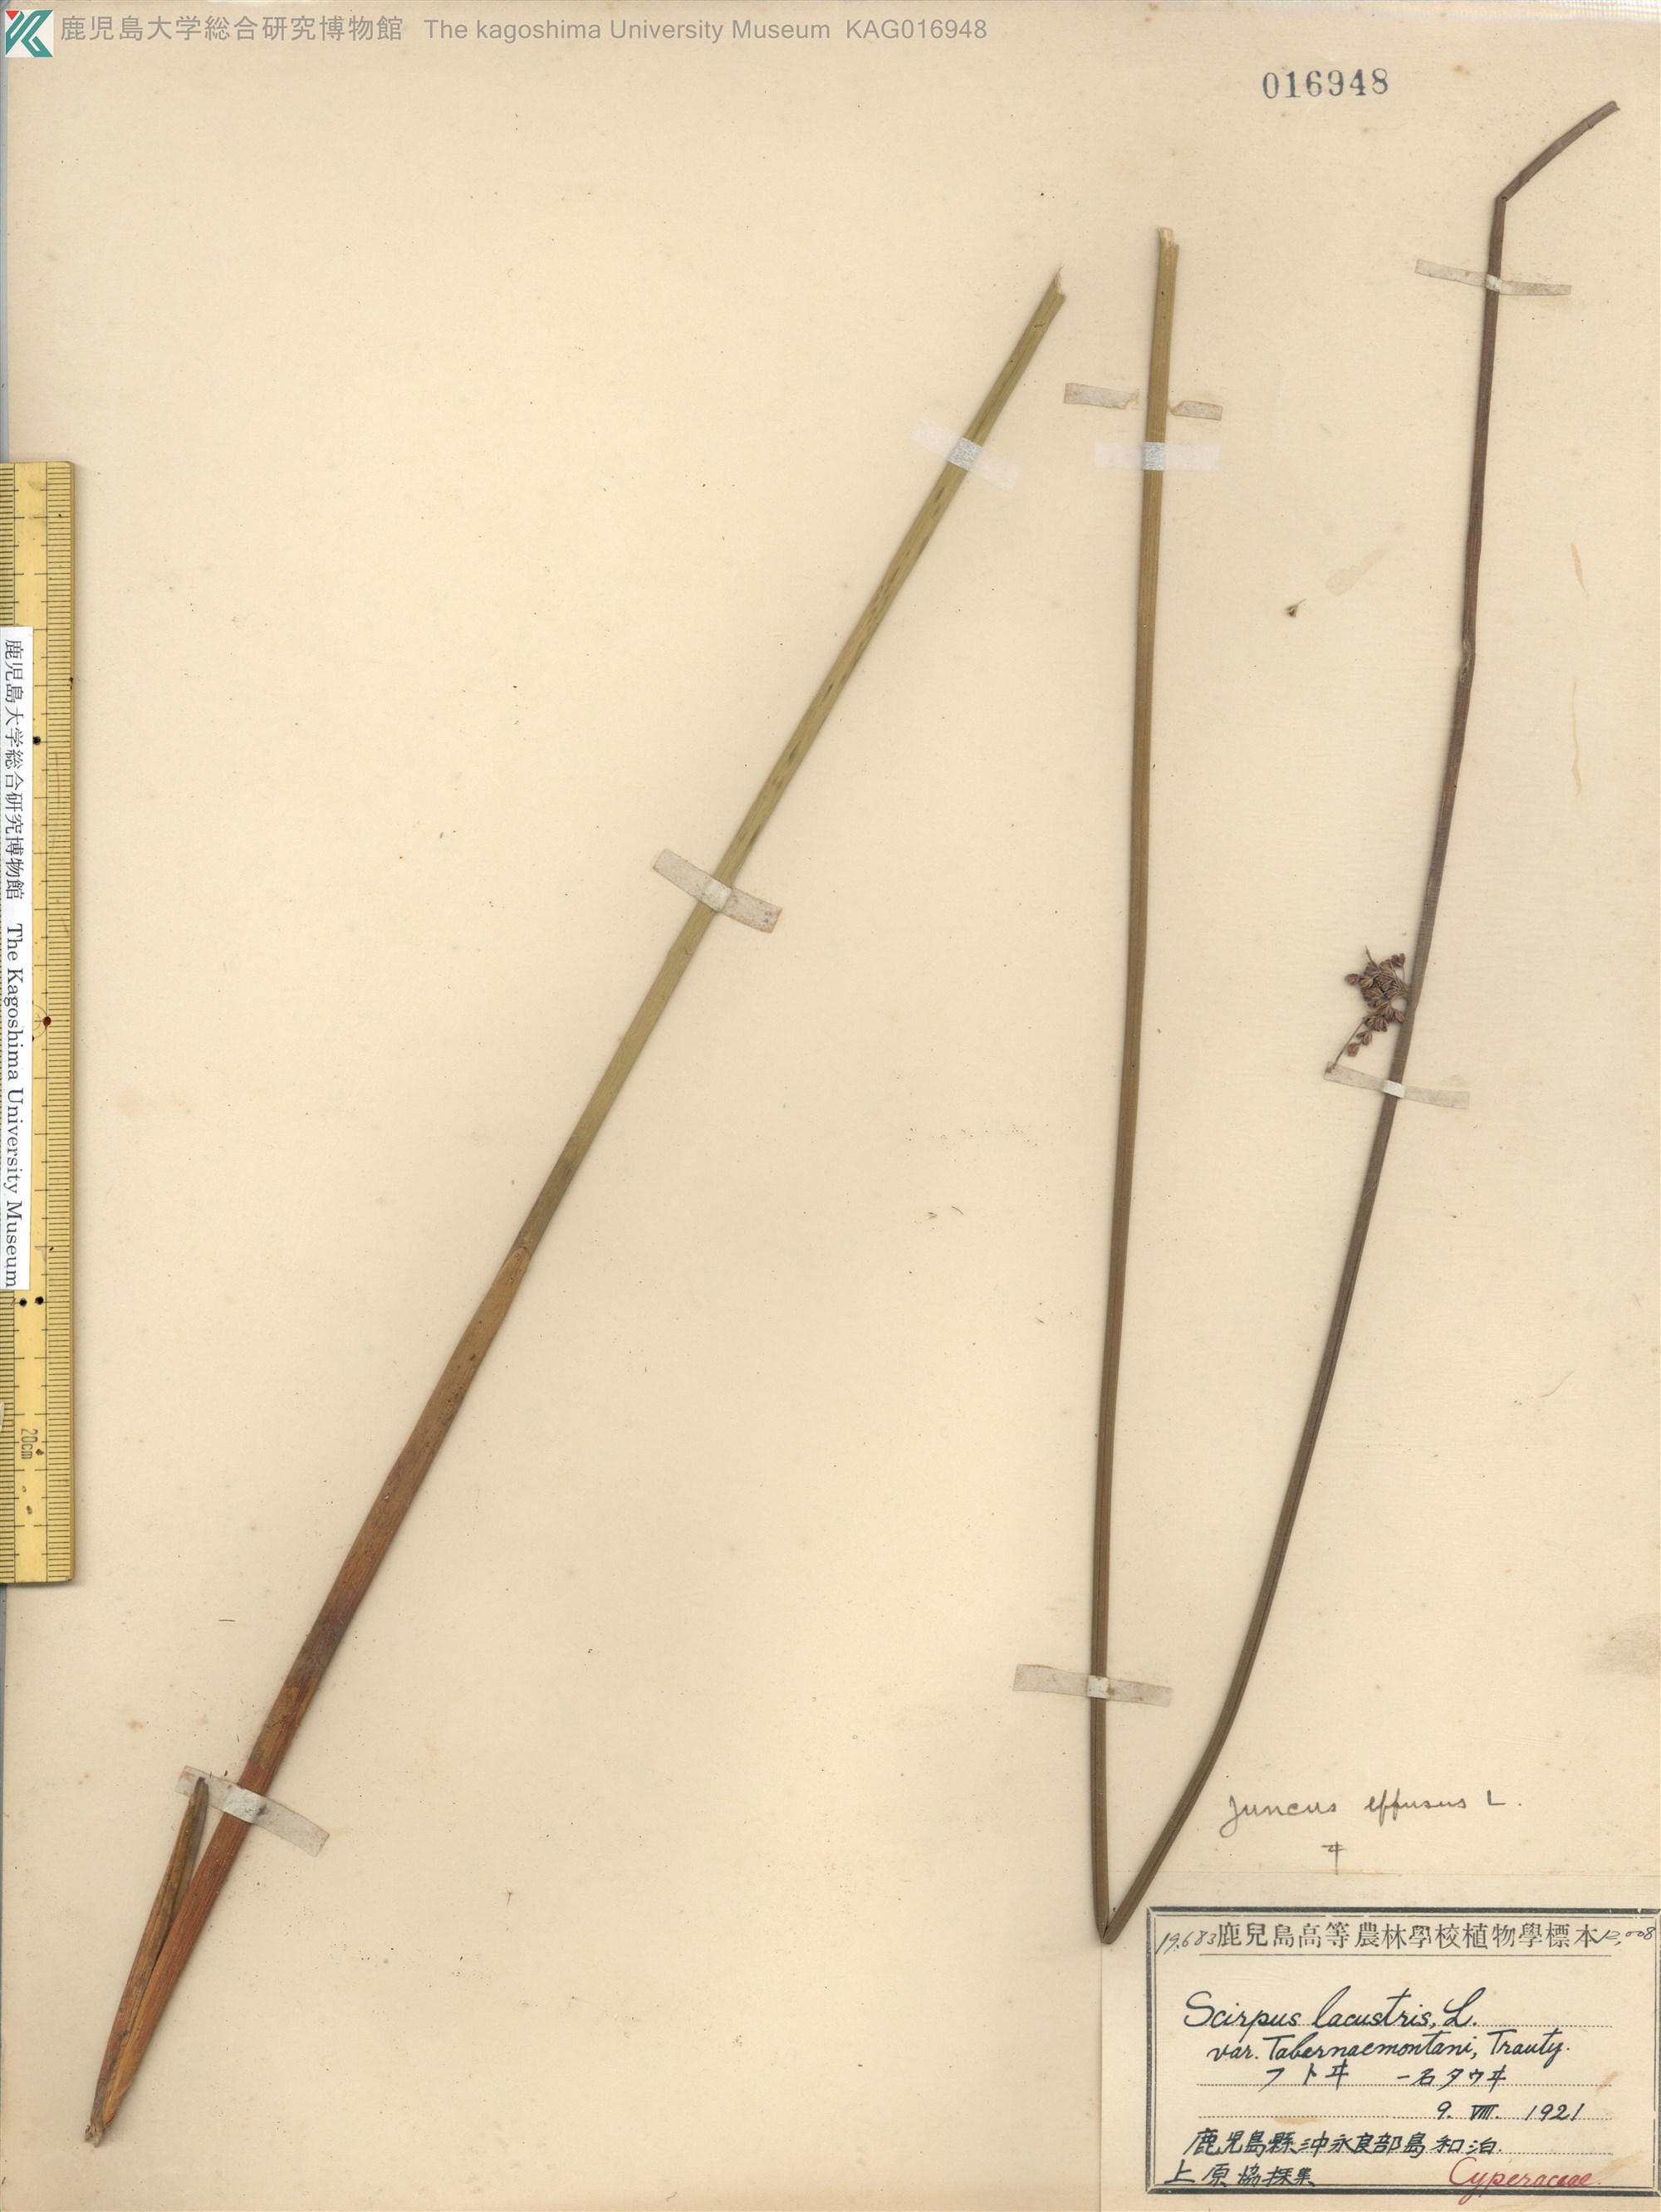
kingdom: Plantae
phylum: Tracheophyta
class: Liliopsida
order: Poales
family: Juncaceae
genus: Juncus
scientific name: Juncus decipiens
